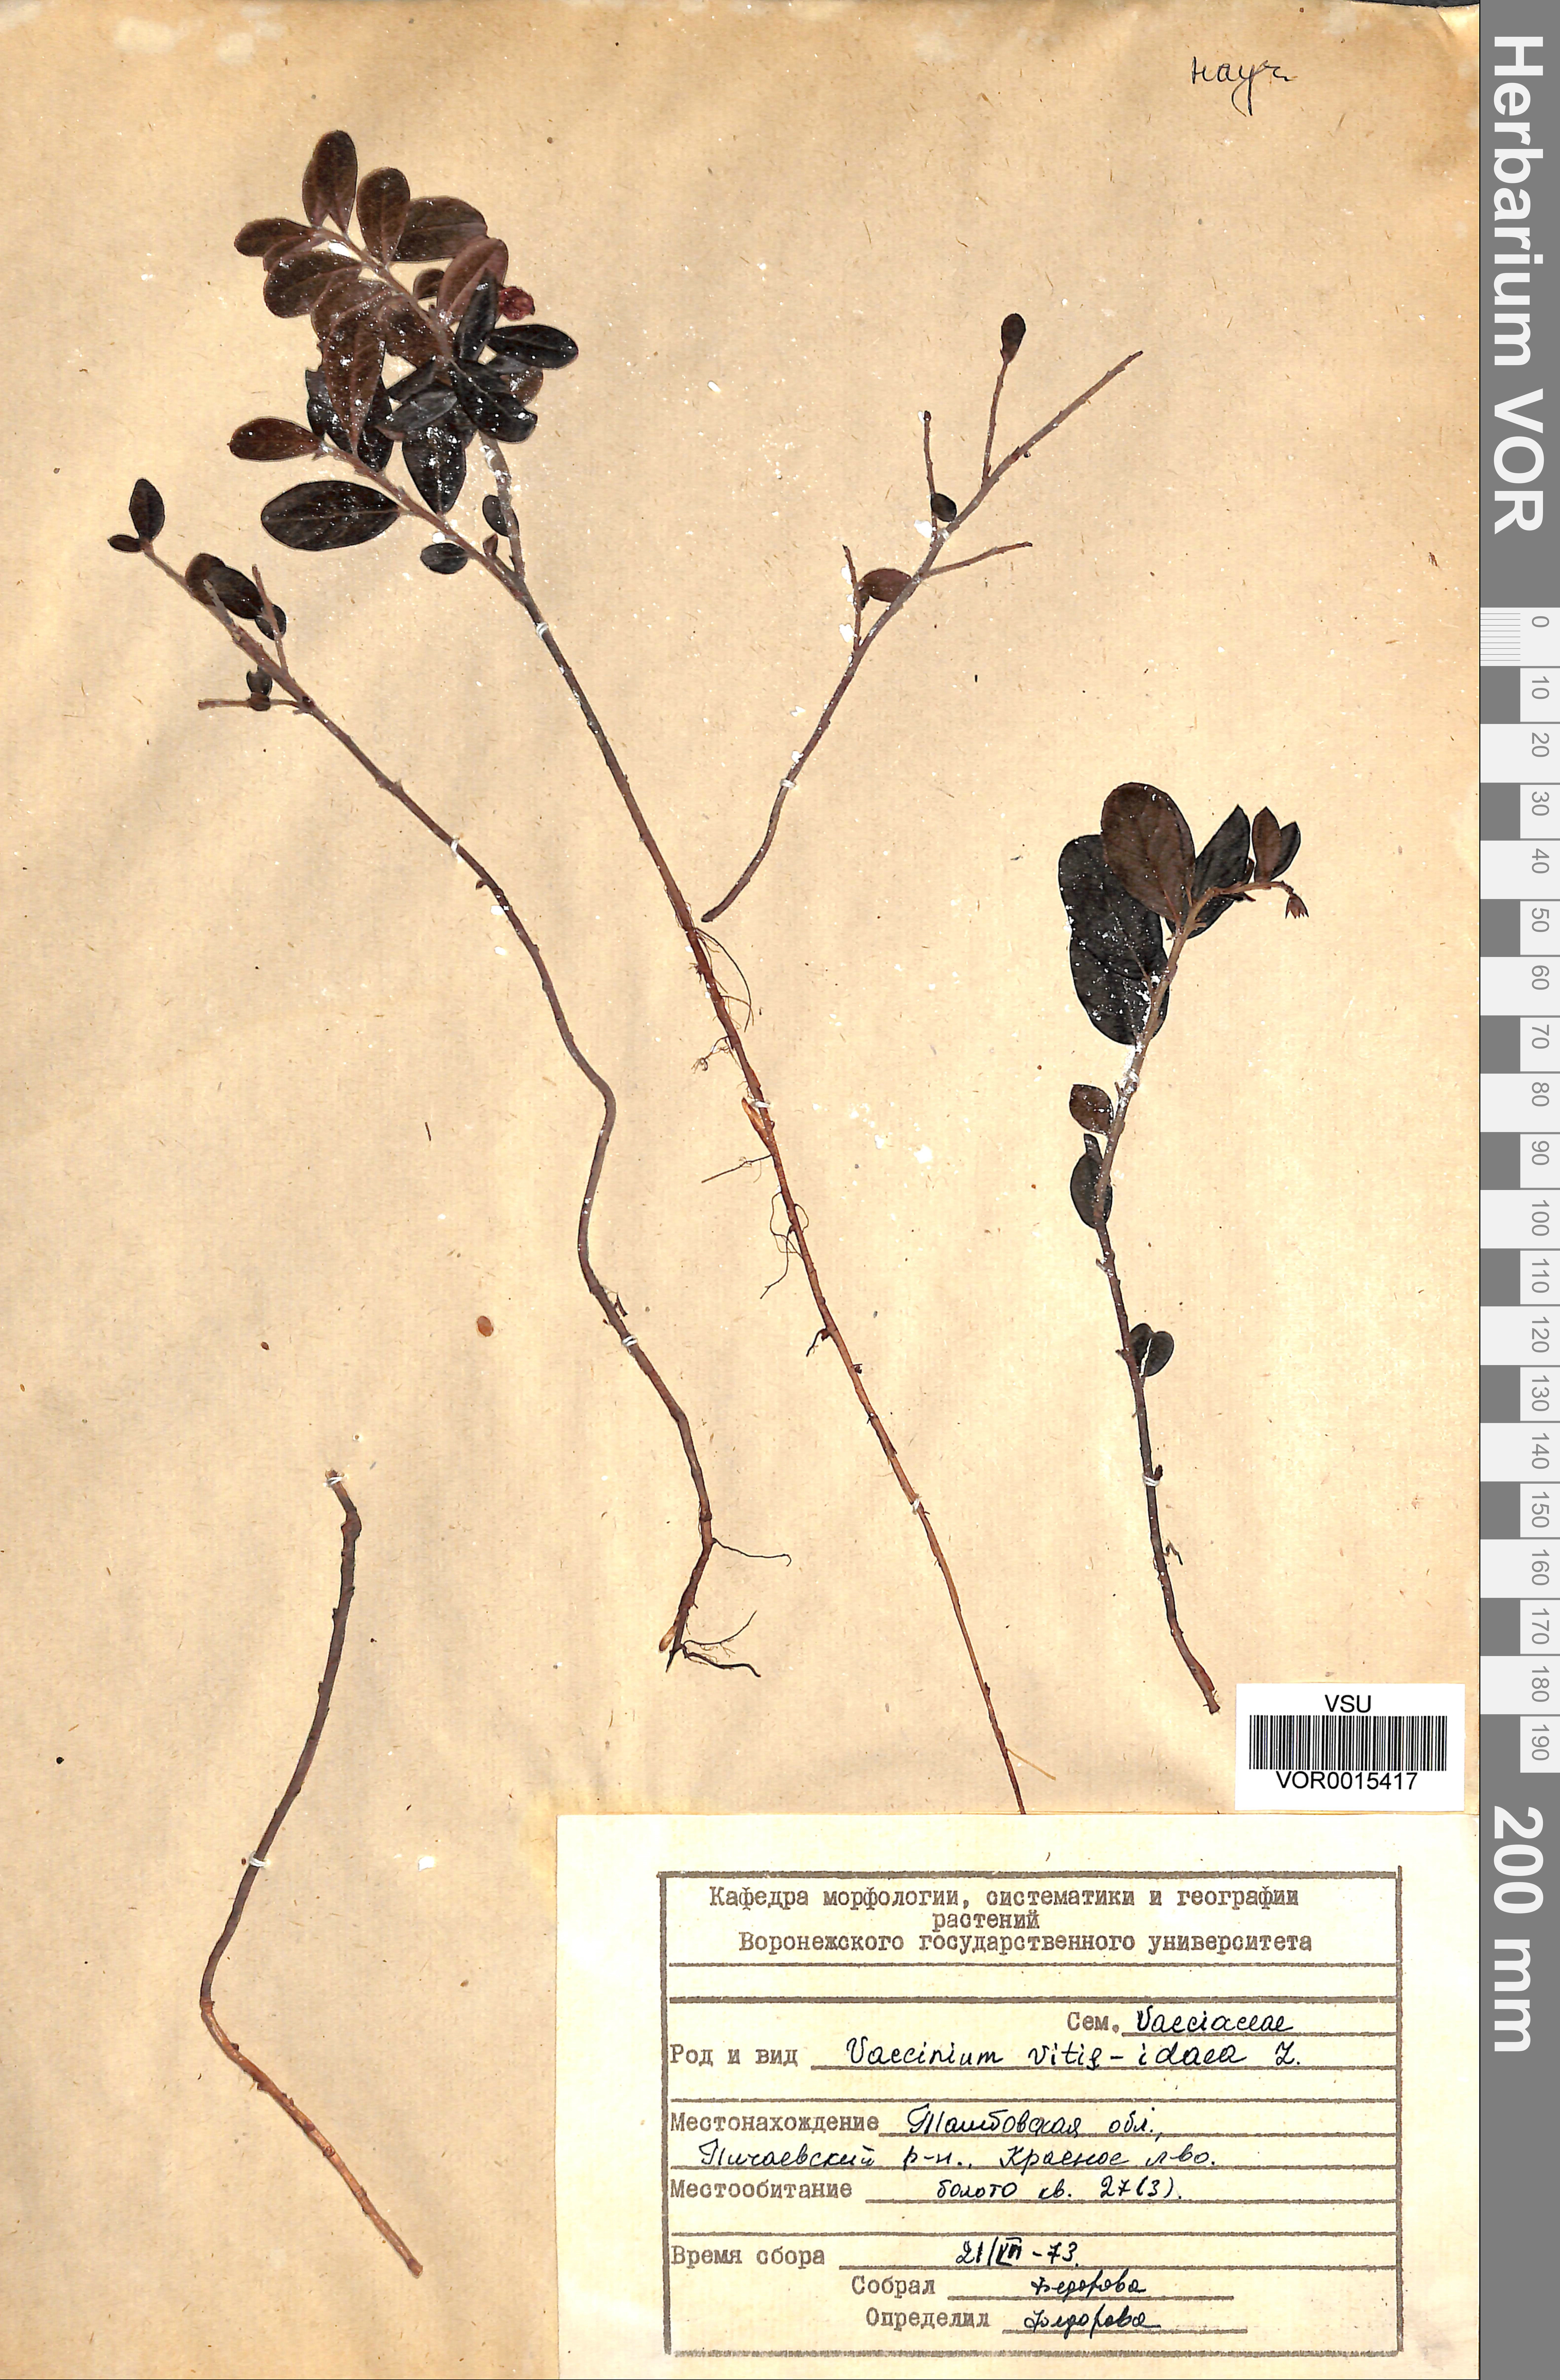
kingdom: Plantae
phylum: Tracheophyta
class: Magnoliopsida
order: Ericales
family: Ericaceae
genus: Vaccinium
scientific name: Vaccinium vitis-idaea
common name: Cowberry
